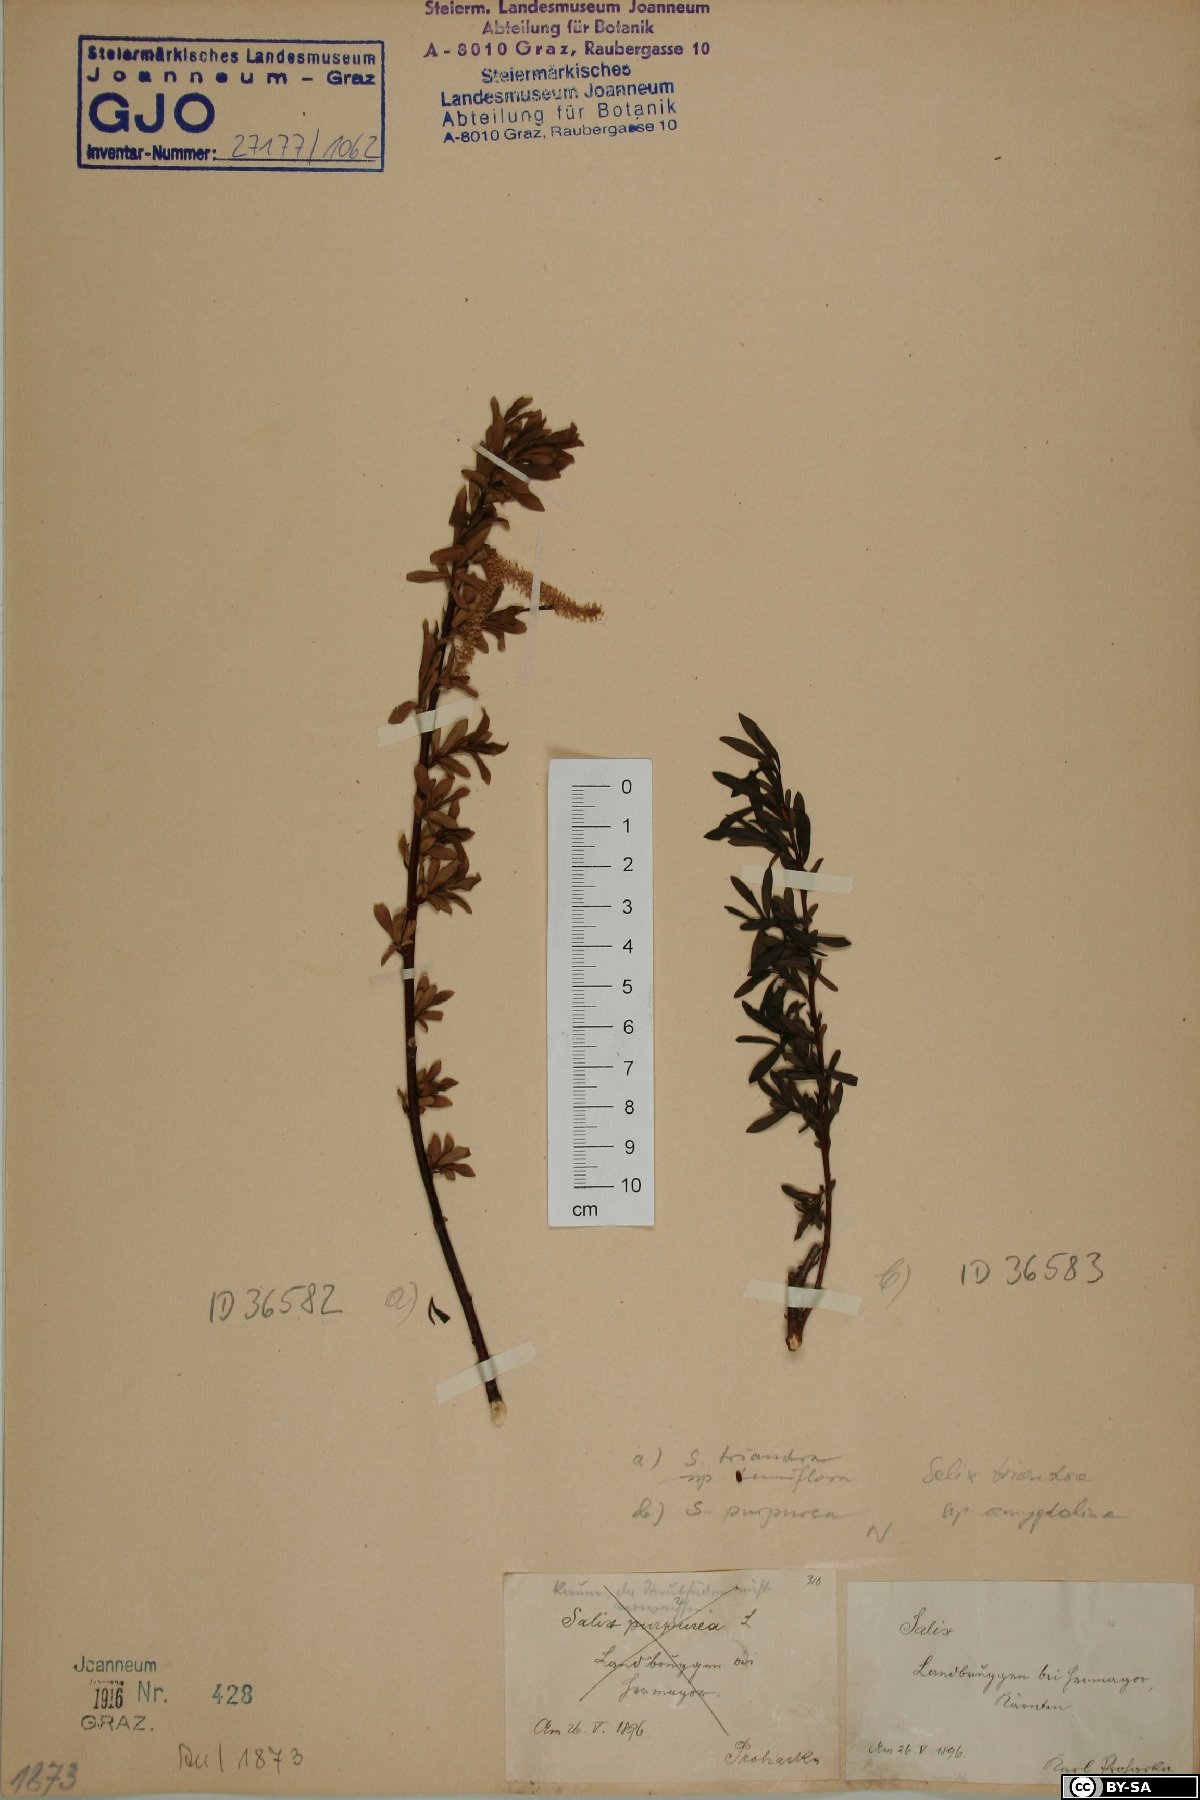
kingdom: Plantae
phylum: Tracheophyta
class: Magnoliopsida
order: Malpighiales
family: Salicaceae
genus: Salix
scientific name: Salix triandra
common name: Almond willow
